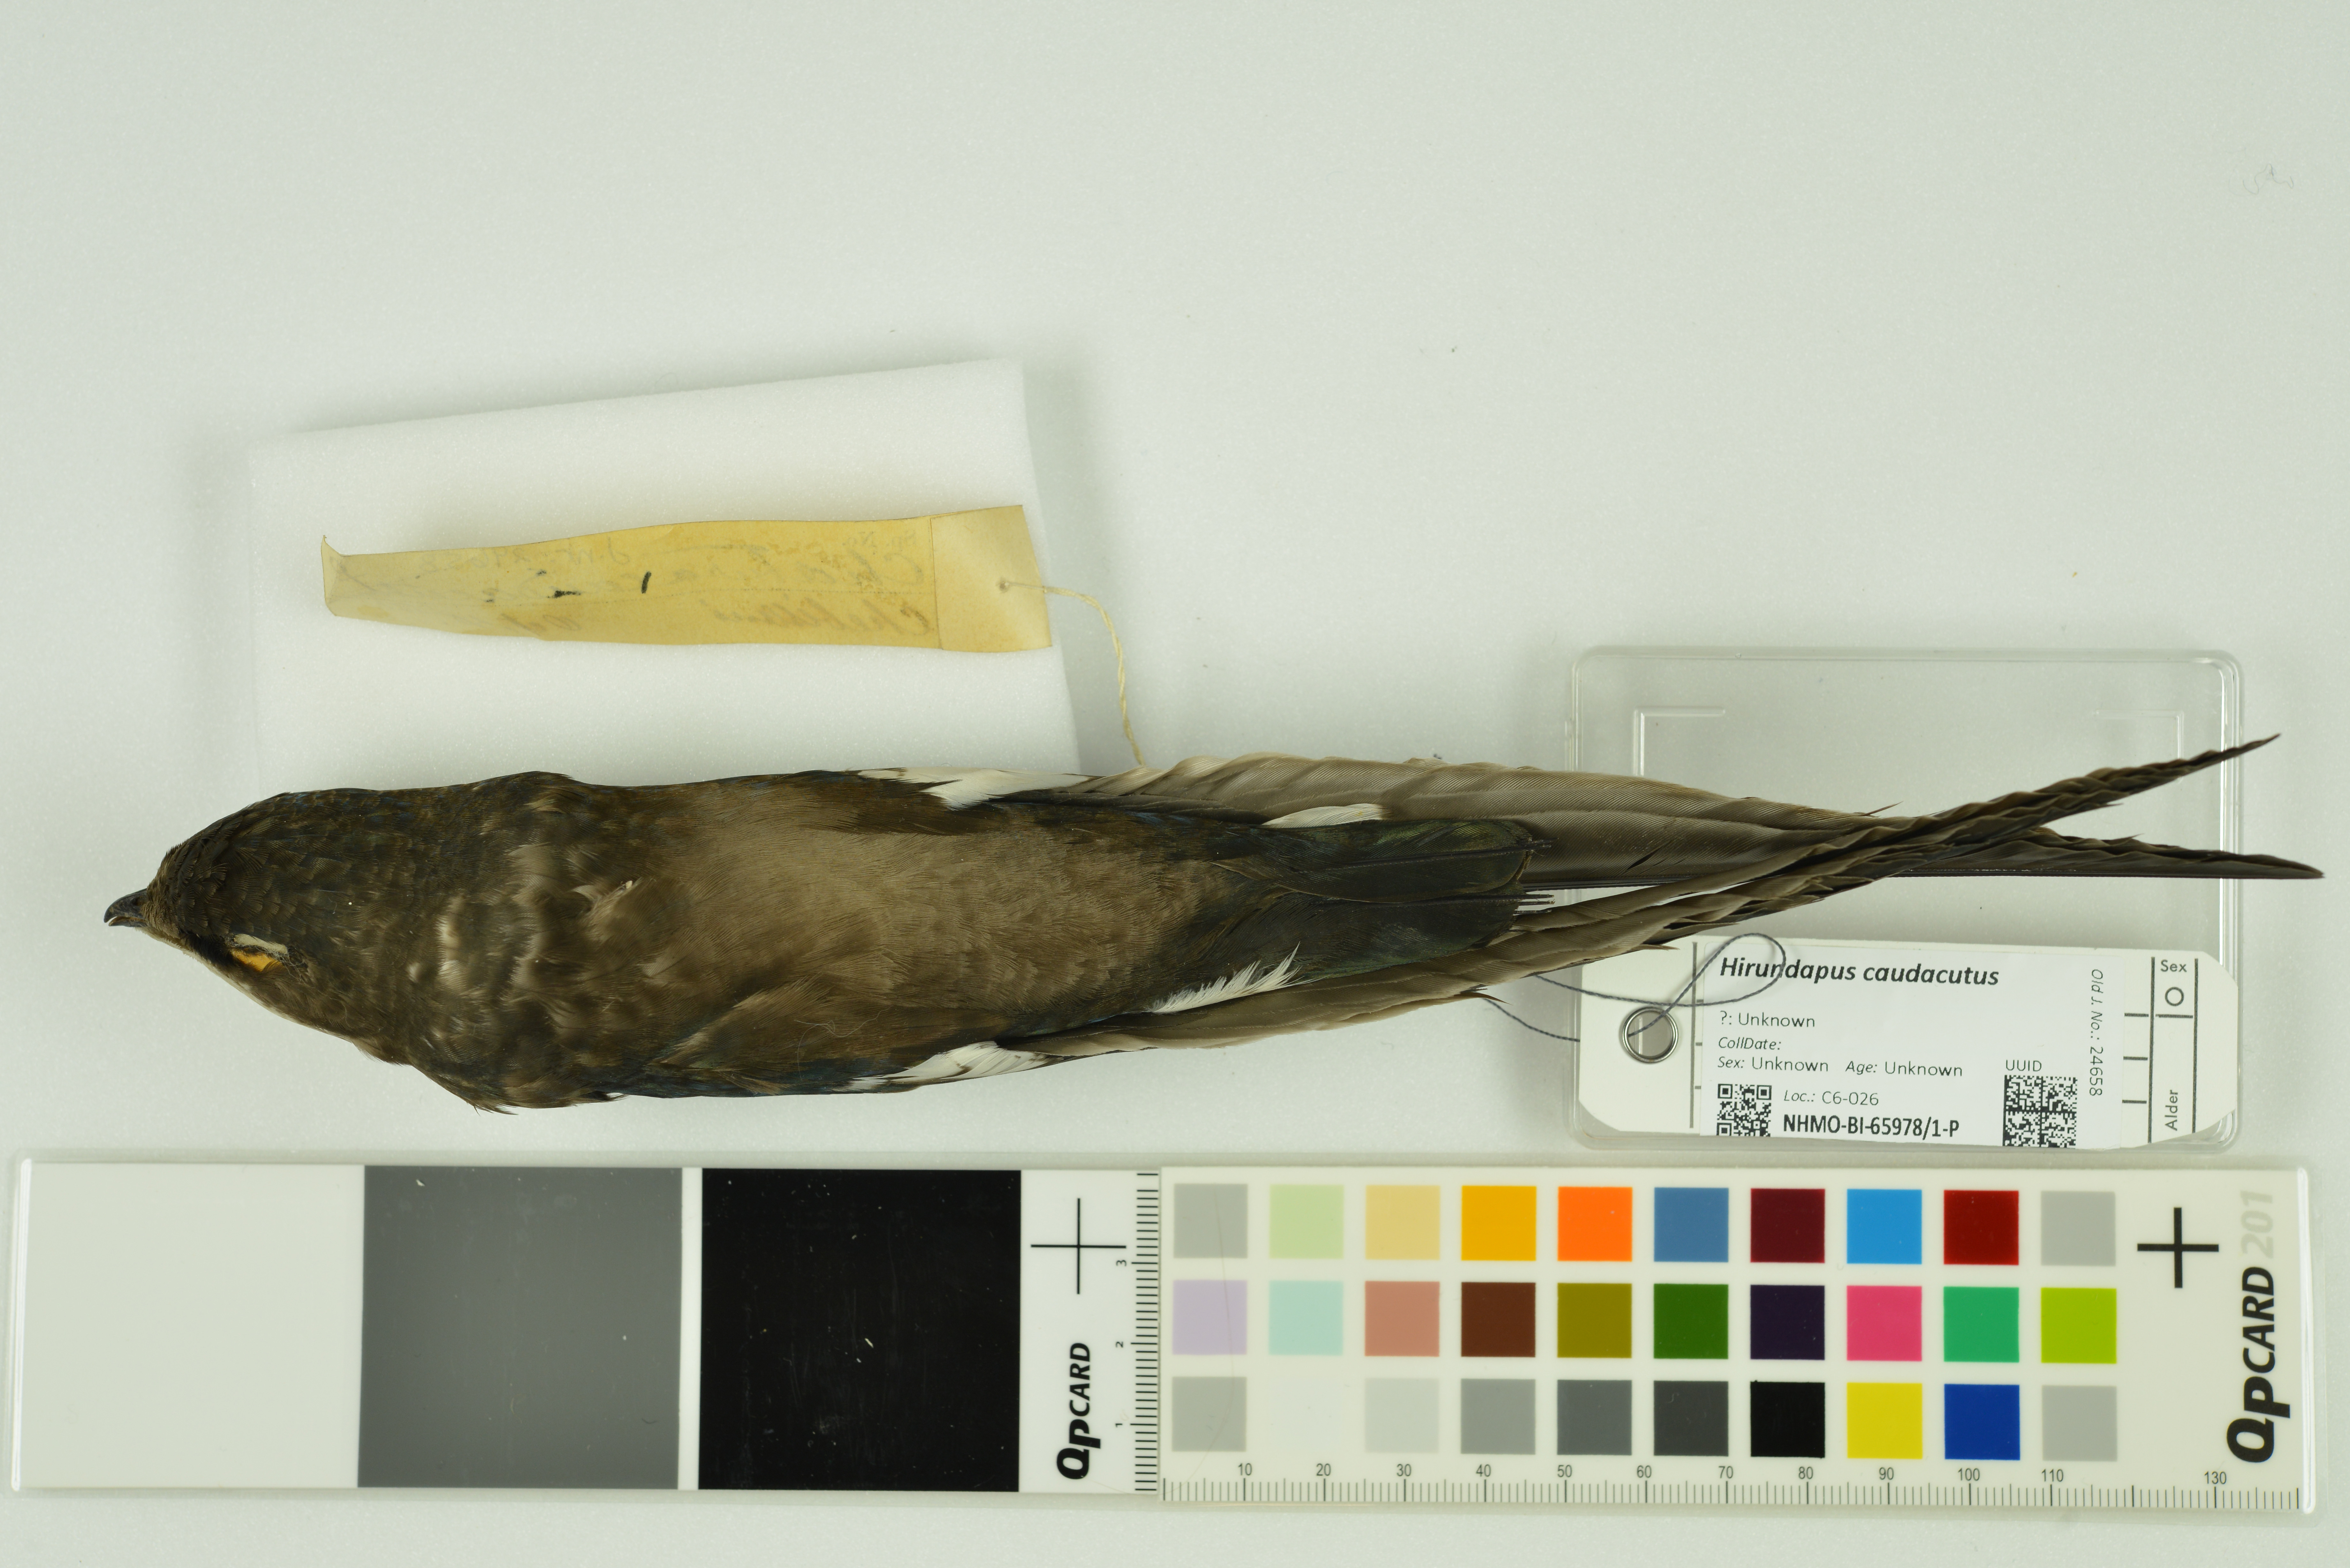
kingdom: Animalia
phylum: Chordata
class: Aves
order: Apodiformes
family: Apodidae
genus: Hirundapus
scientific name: Hirundapus caudacutus
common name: White-throated needletail
